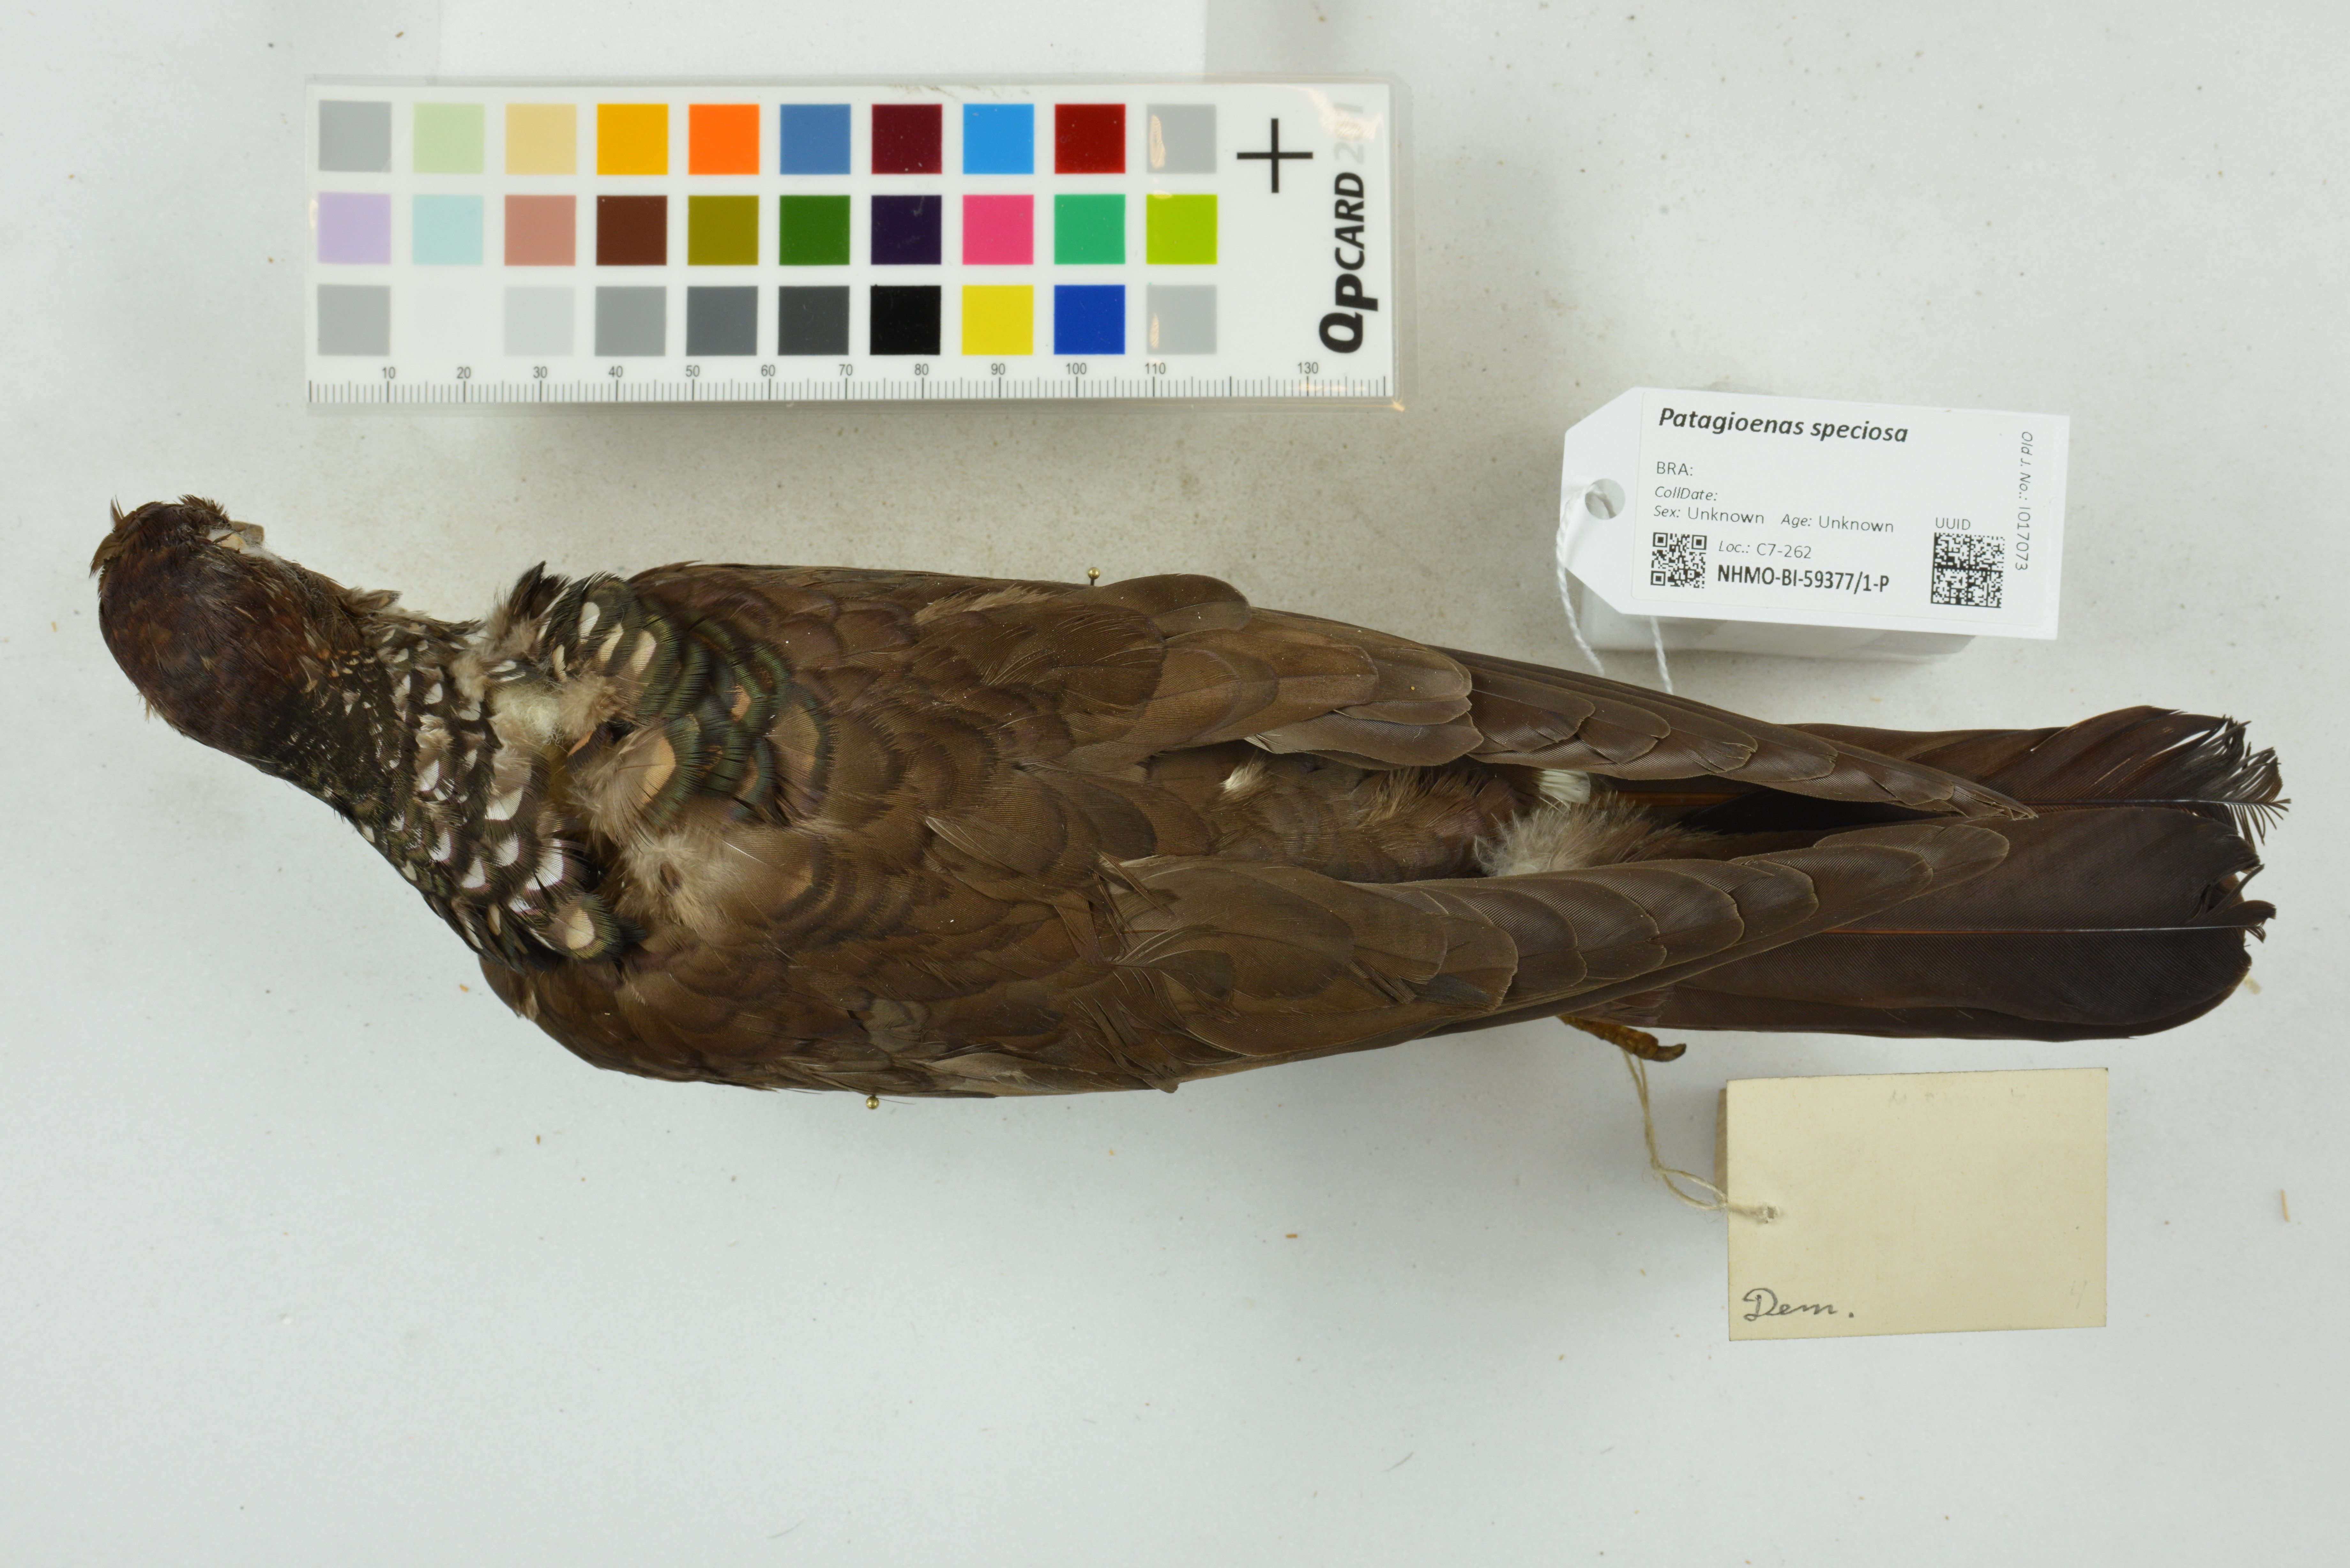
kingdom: Animalia
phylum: Chordata
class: Aves
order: Columbiformes
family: Columbidae
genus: Patagioenas
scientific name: Patagioenas speciosa
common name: Scaled pigeon
